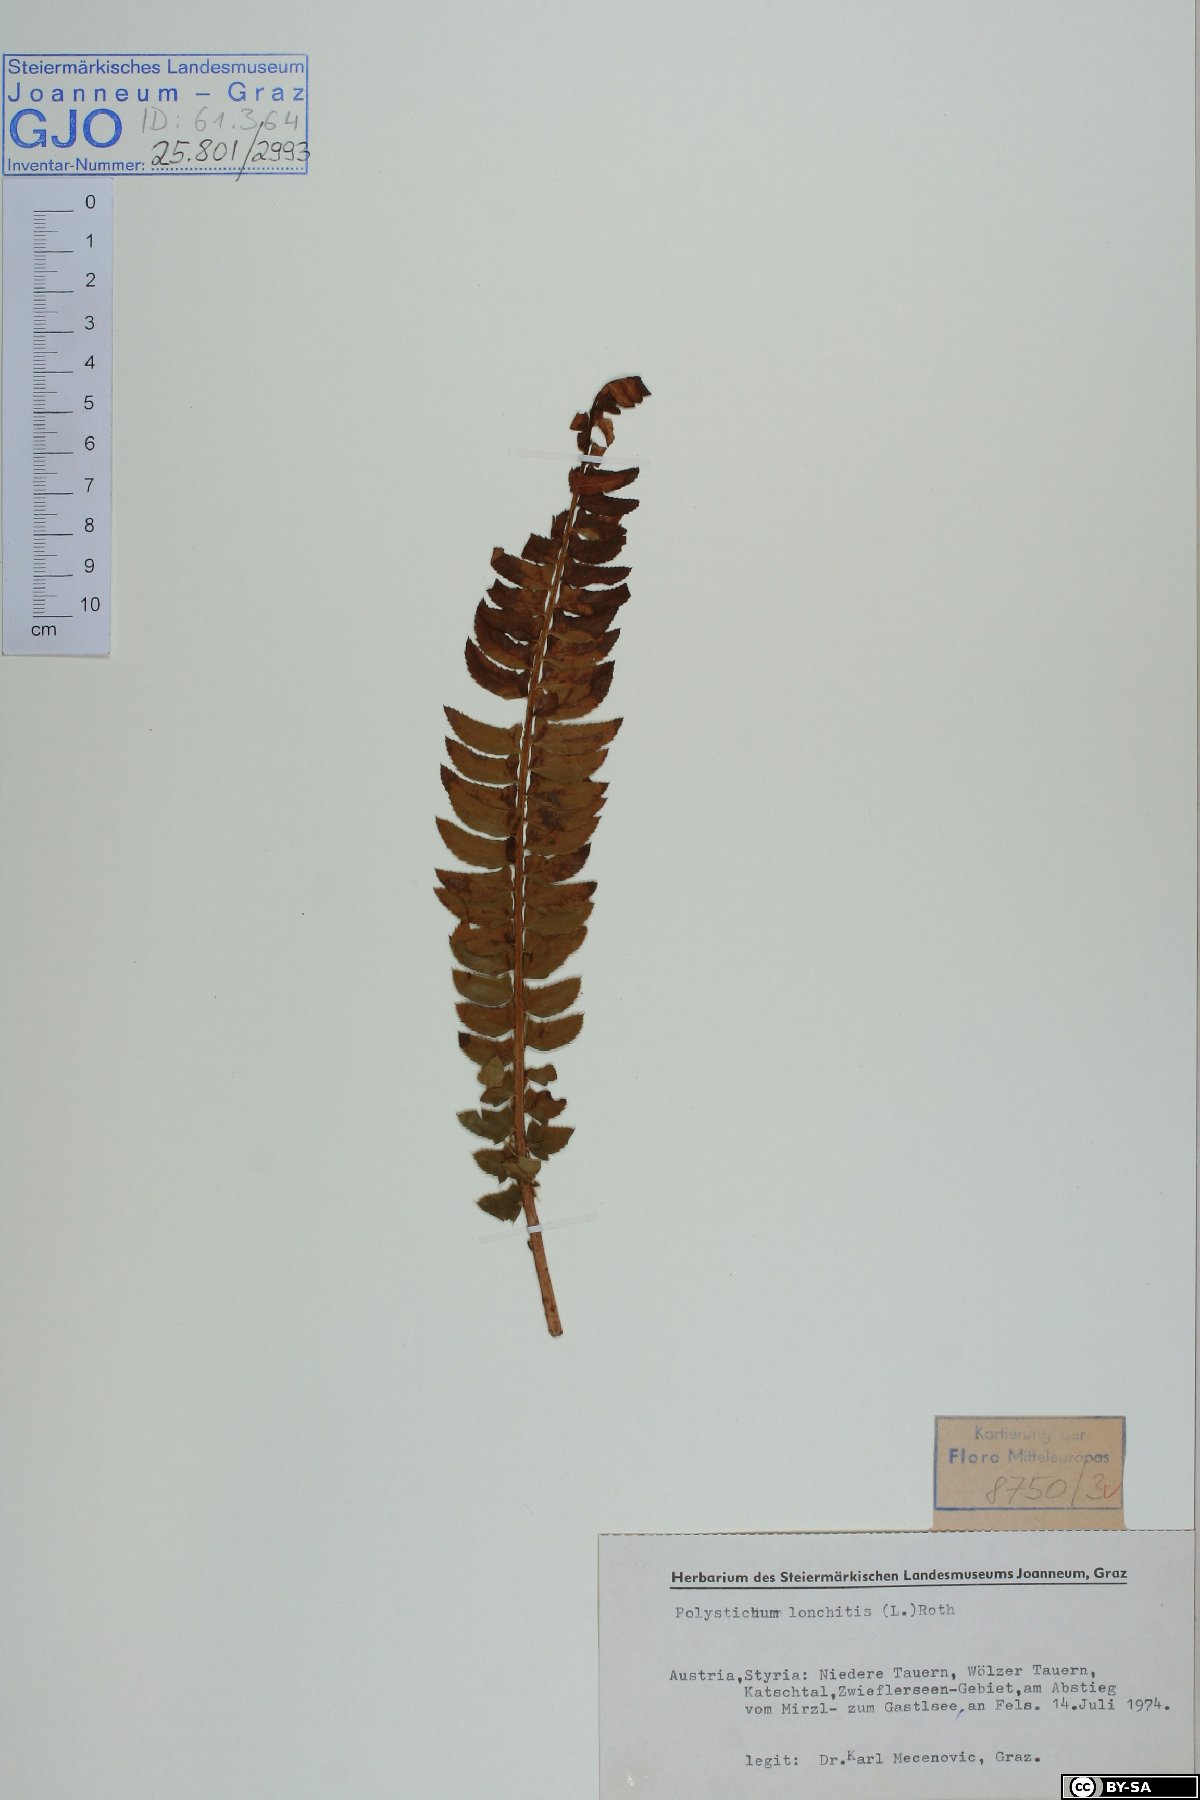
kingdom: Plantae
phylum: Tracheophyta
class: Polypodiopsida
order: Polypodiales
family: Dryopteridaceae
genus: Polystichum
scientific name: Polystichum lonchitis
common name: Holly fern
